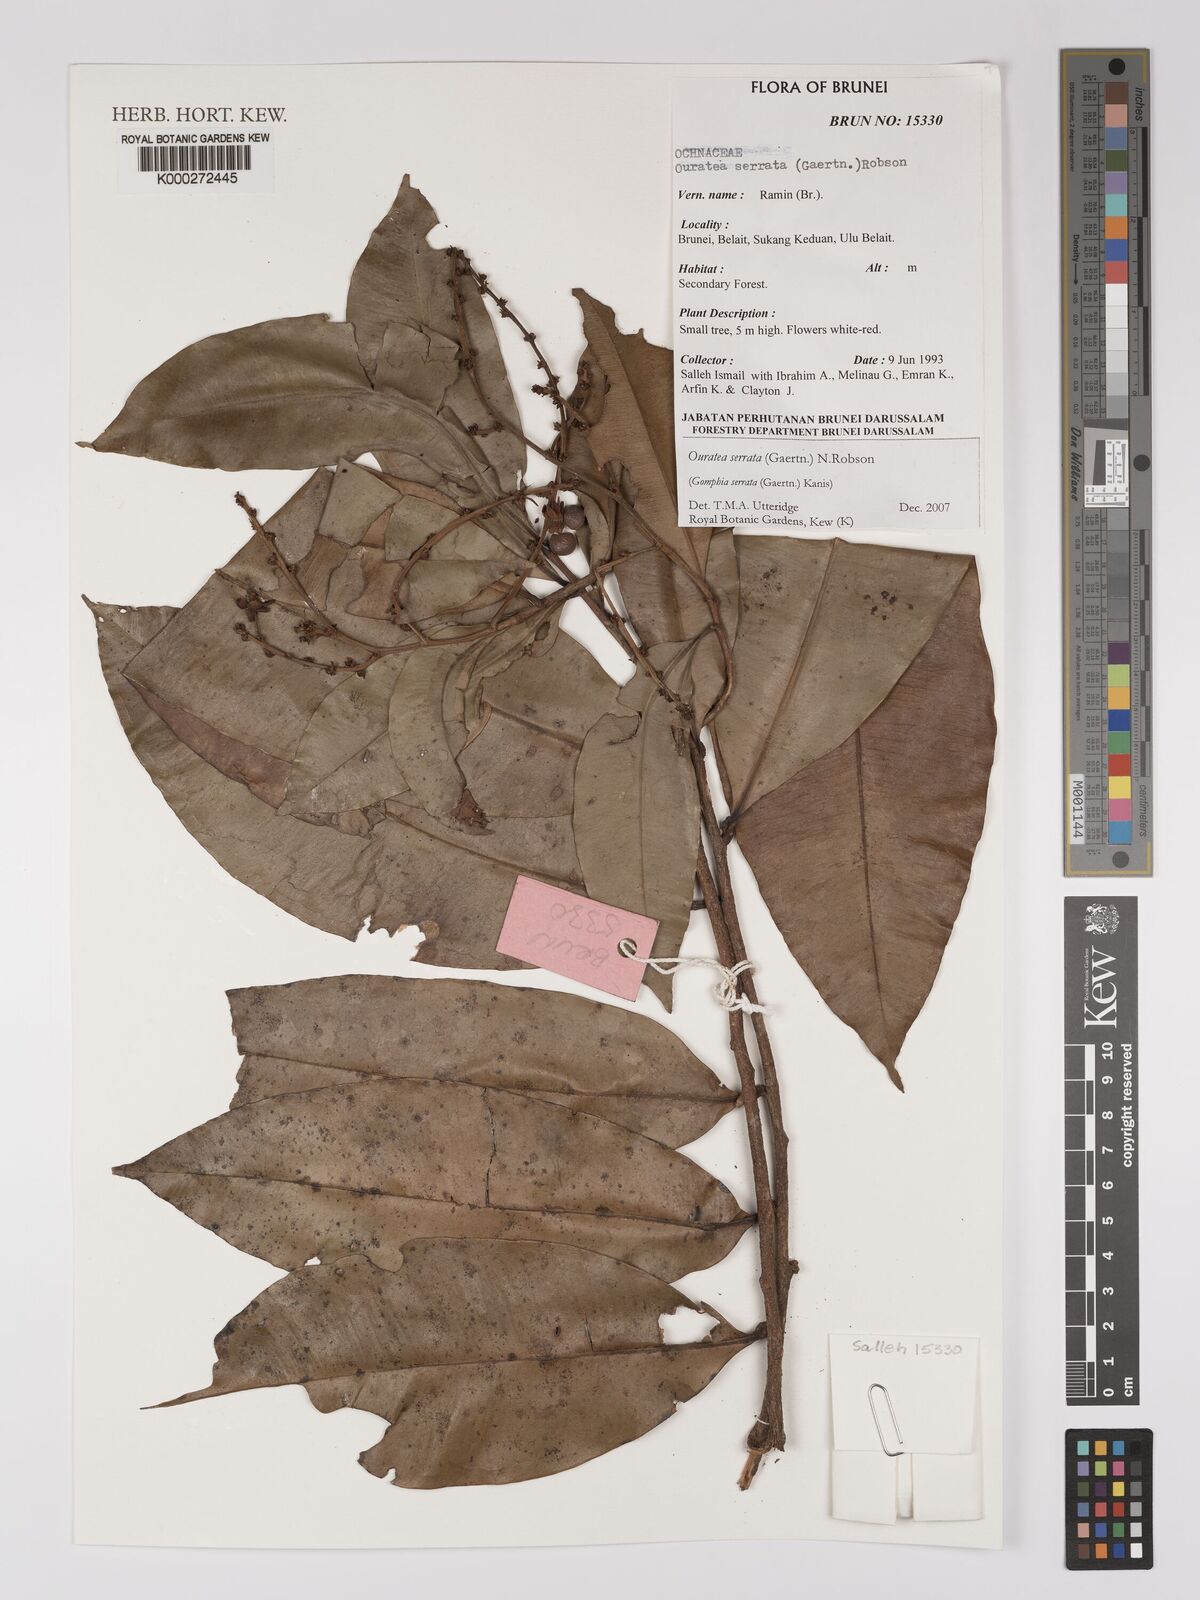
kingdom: Plantae
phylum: Tracheophyta
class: Magnoliopsida
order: Malpighiales
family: Ochnaceae
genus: Gomphia
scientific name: Gomphia serrata
